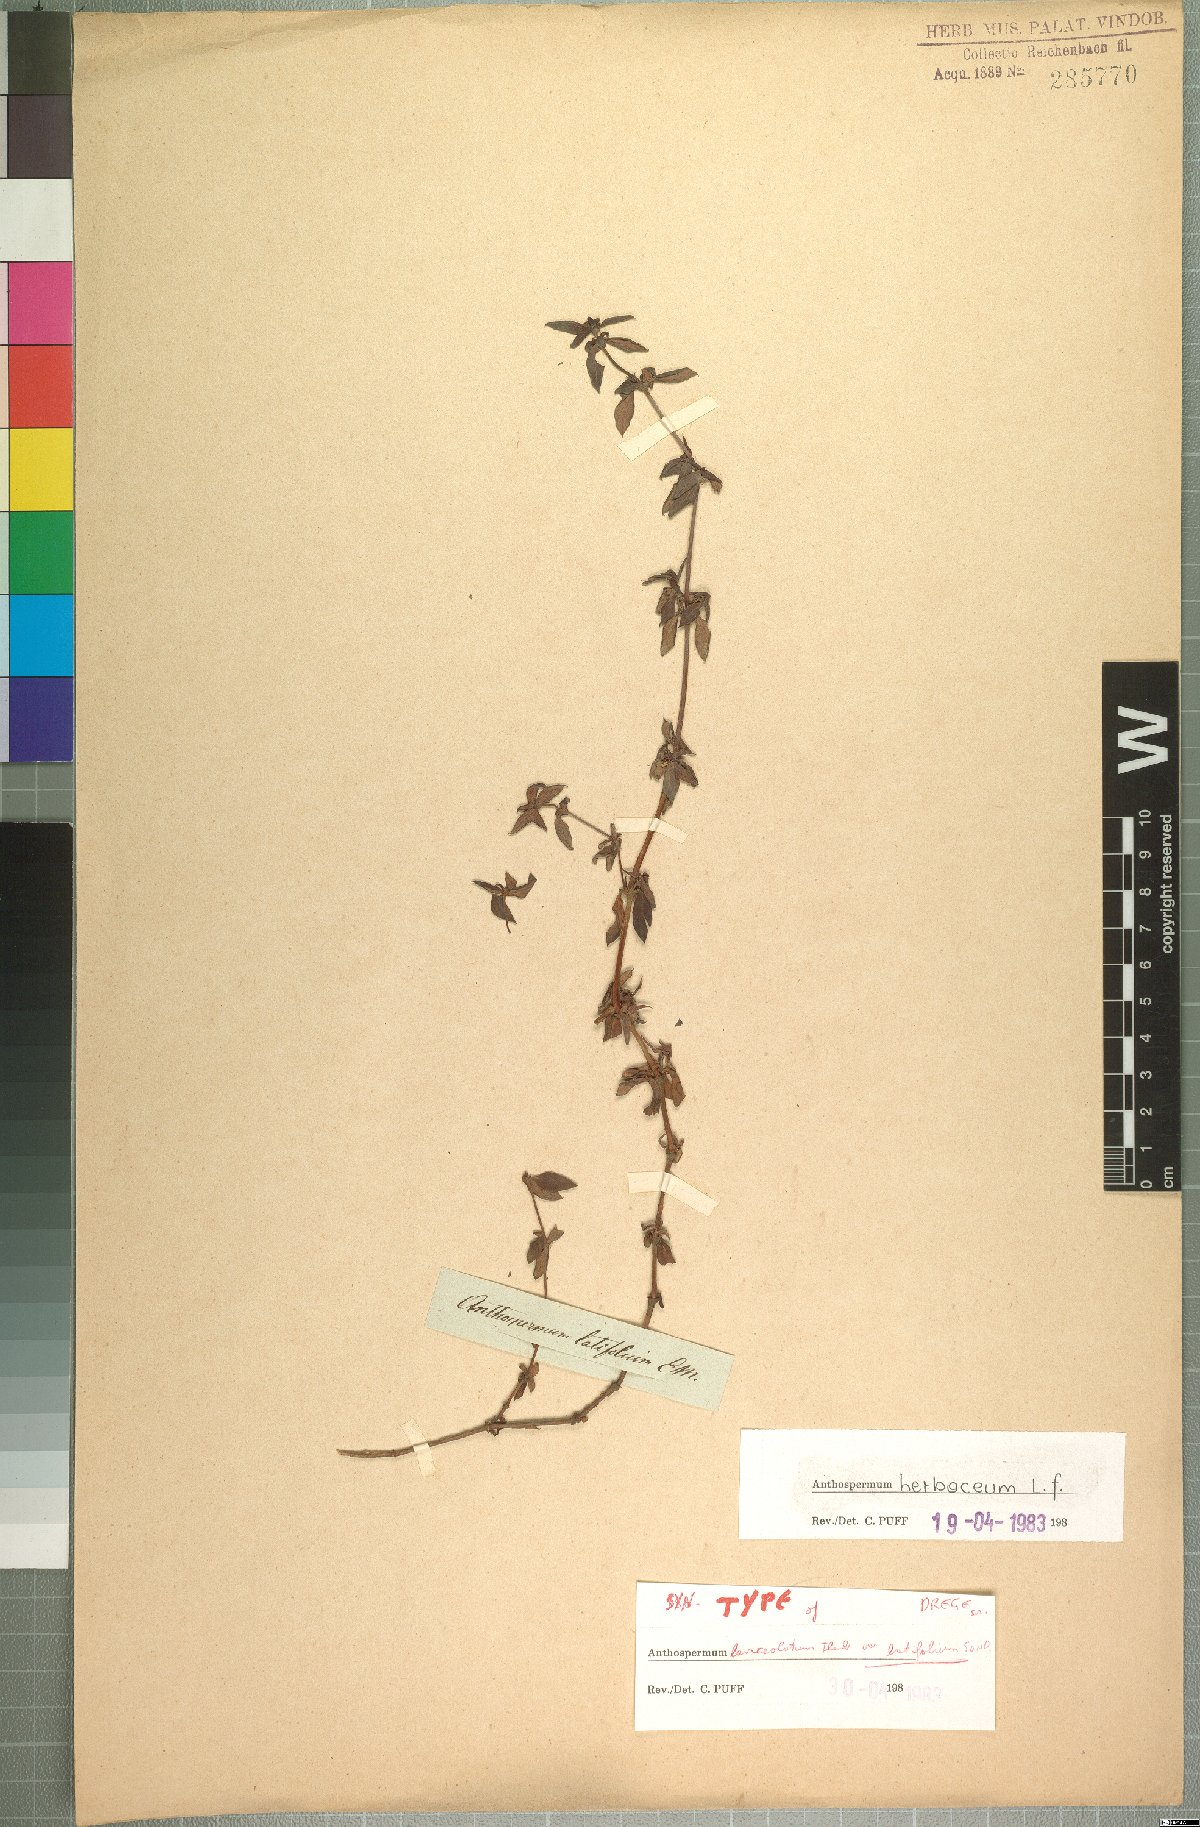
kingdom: Plantae
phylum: Tracheophyta
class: Magnoliopsida
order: Gentianales
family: Rubiaceae
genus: Anthospermum
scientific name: Anthospermum herbaceum
